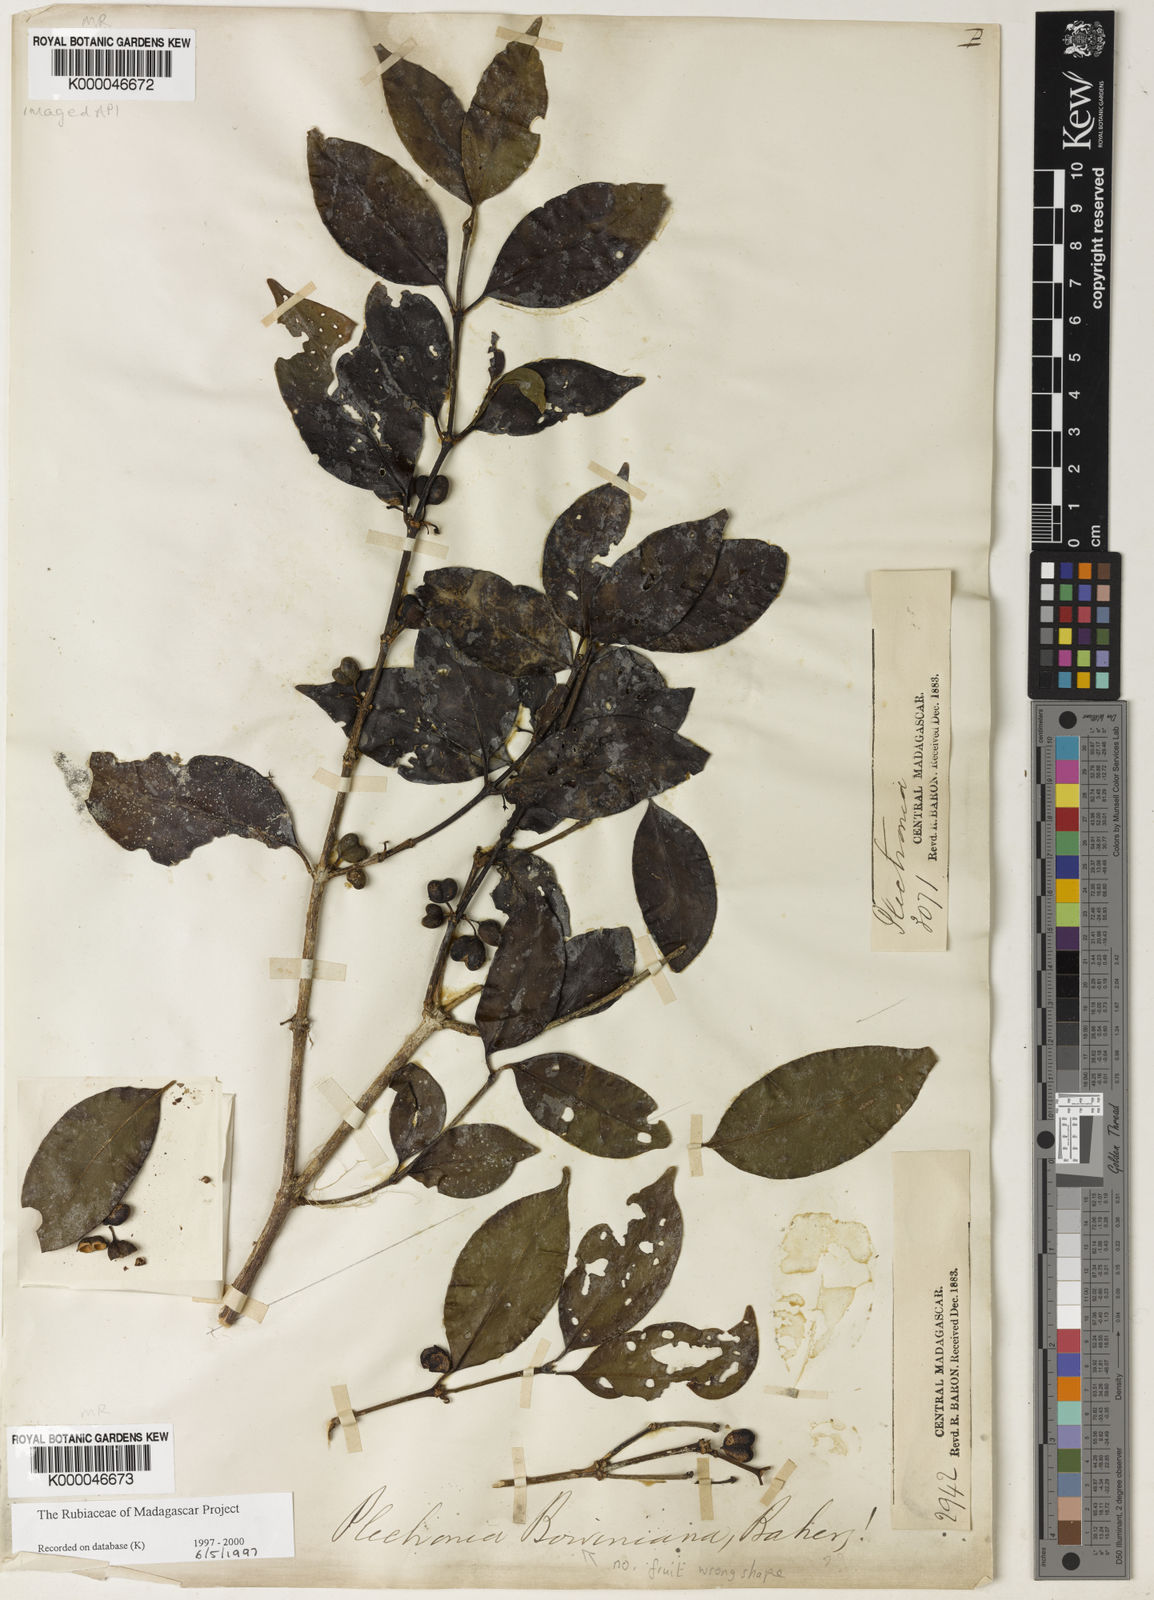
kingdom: Plantae
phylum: Tracheophyta
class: Magnoliopsida
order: Gentianales
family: Rubiaceae
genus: Peponidium
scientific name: Peponidium boivinianum
